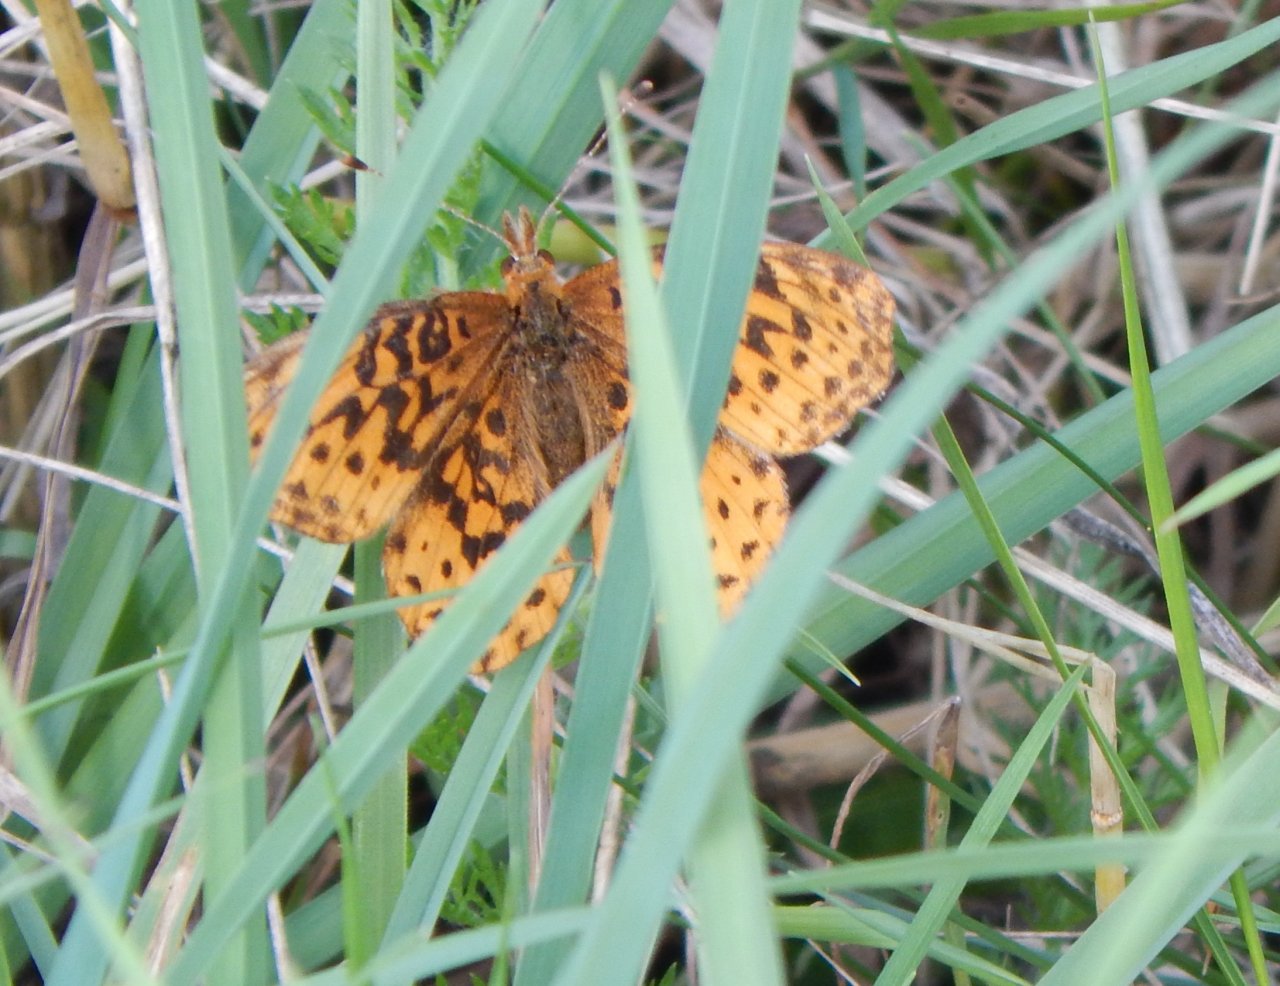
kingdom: Animalia
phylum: Arthropoda
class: Insecta
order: Lepidoptera
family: Nymphalidae
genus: Clossiana
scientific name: Clossiana toddi
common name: Meadow Fritillary
